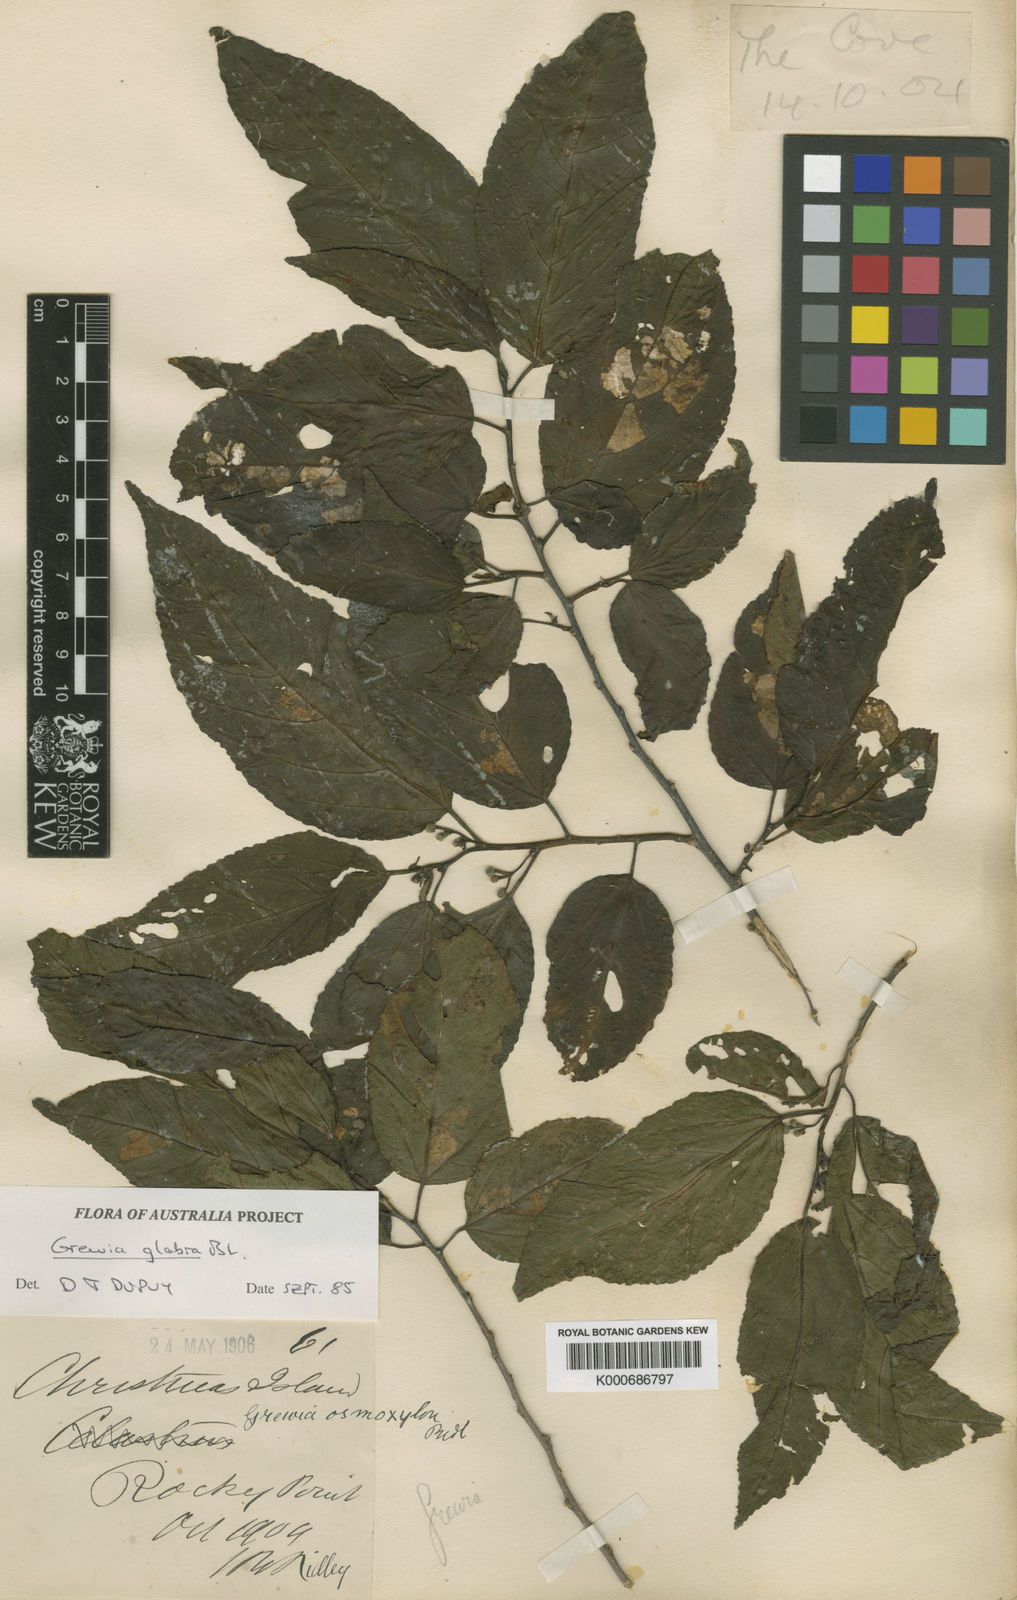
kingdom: Plantae
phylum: Tracheophyta
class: Magnoliopsida
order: Malvales
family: Malvaceae
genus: Grewia
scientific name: Grewia guazumifolia
